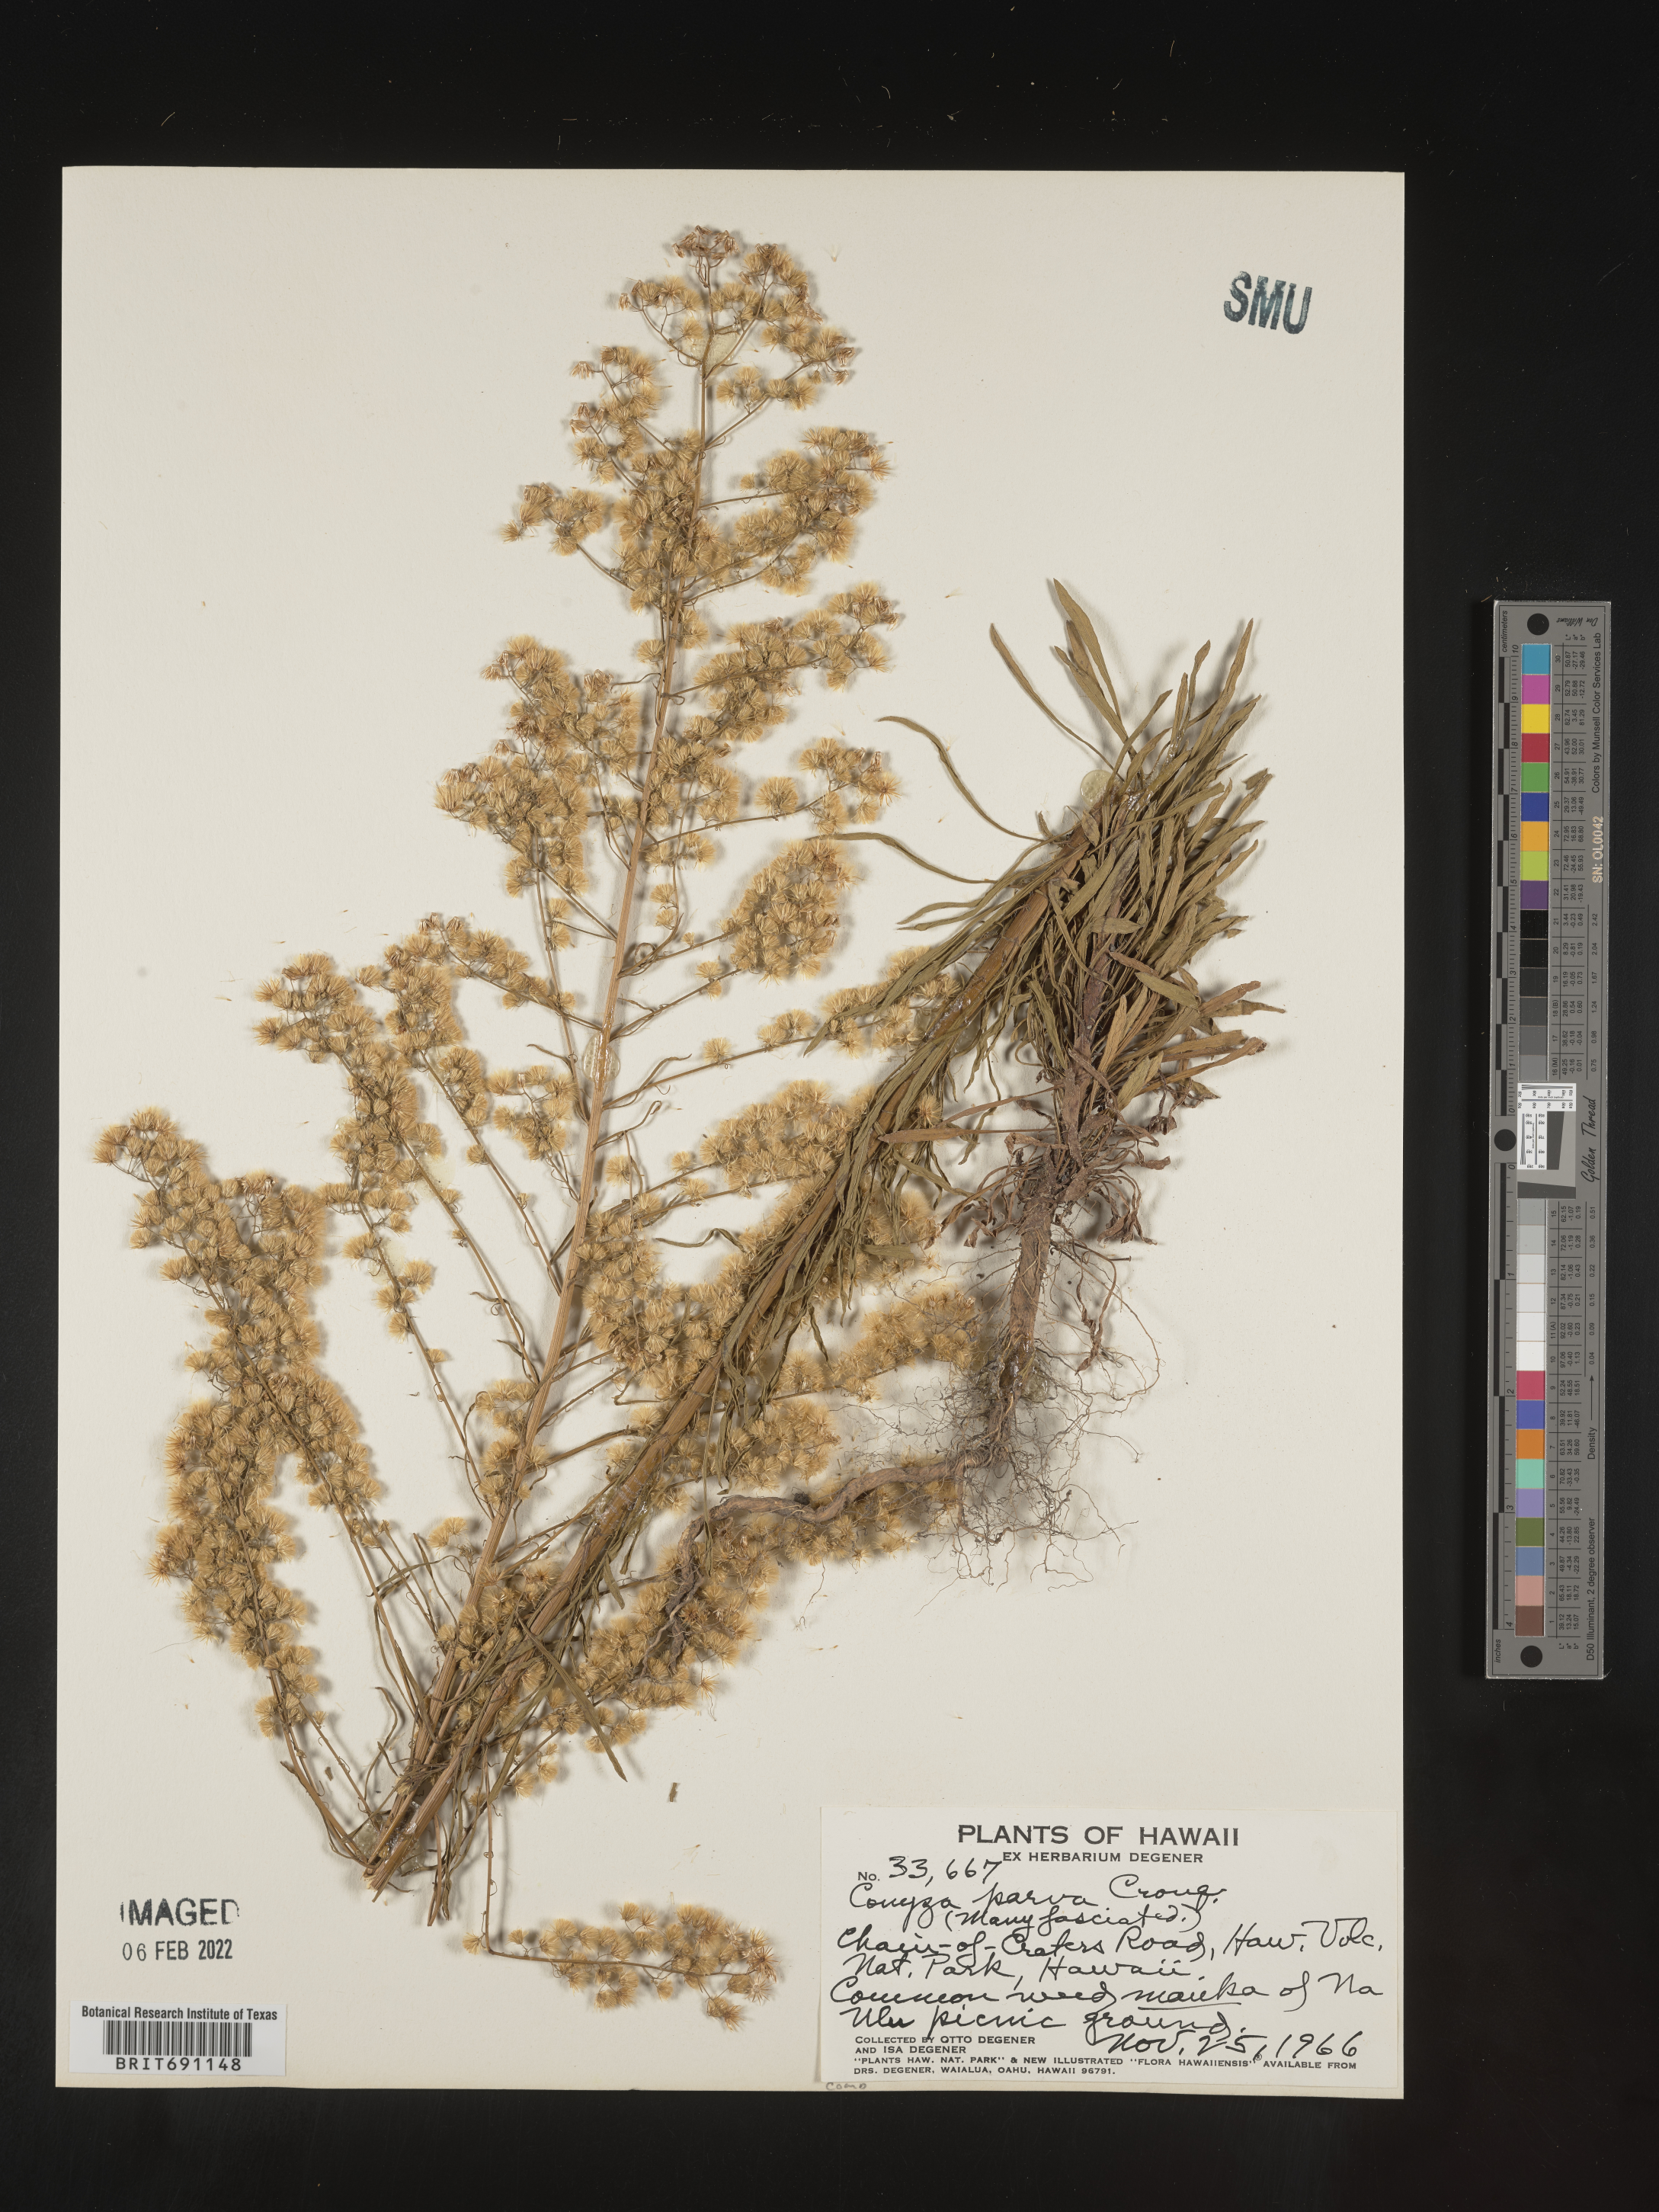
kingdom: Plantae
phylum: Tracheophyta
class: Magnoliopsida
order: Asterales
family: Asteraceae
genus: Conyza
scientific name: Conyza
